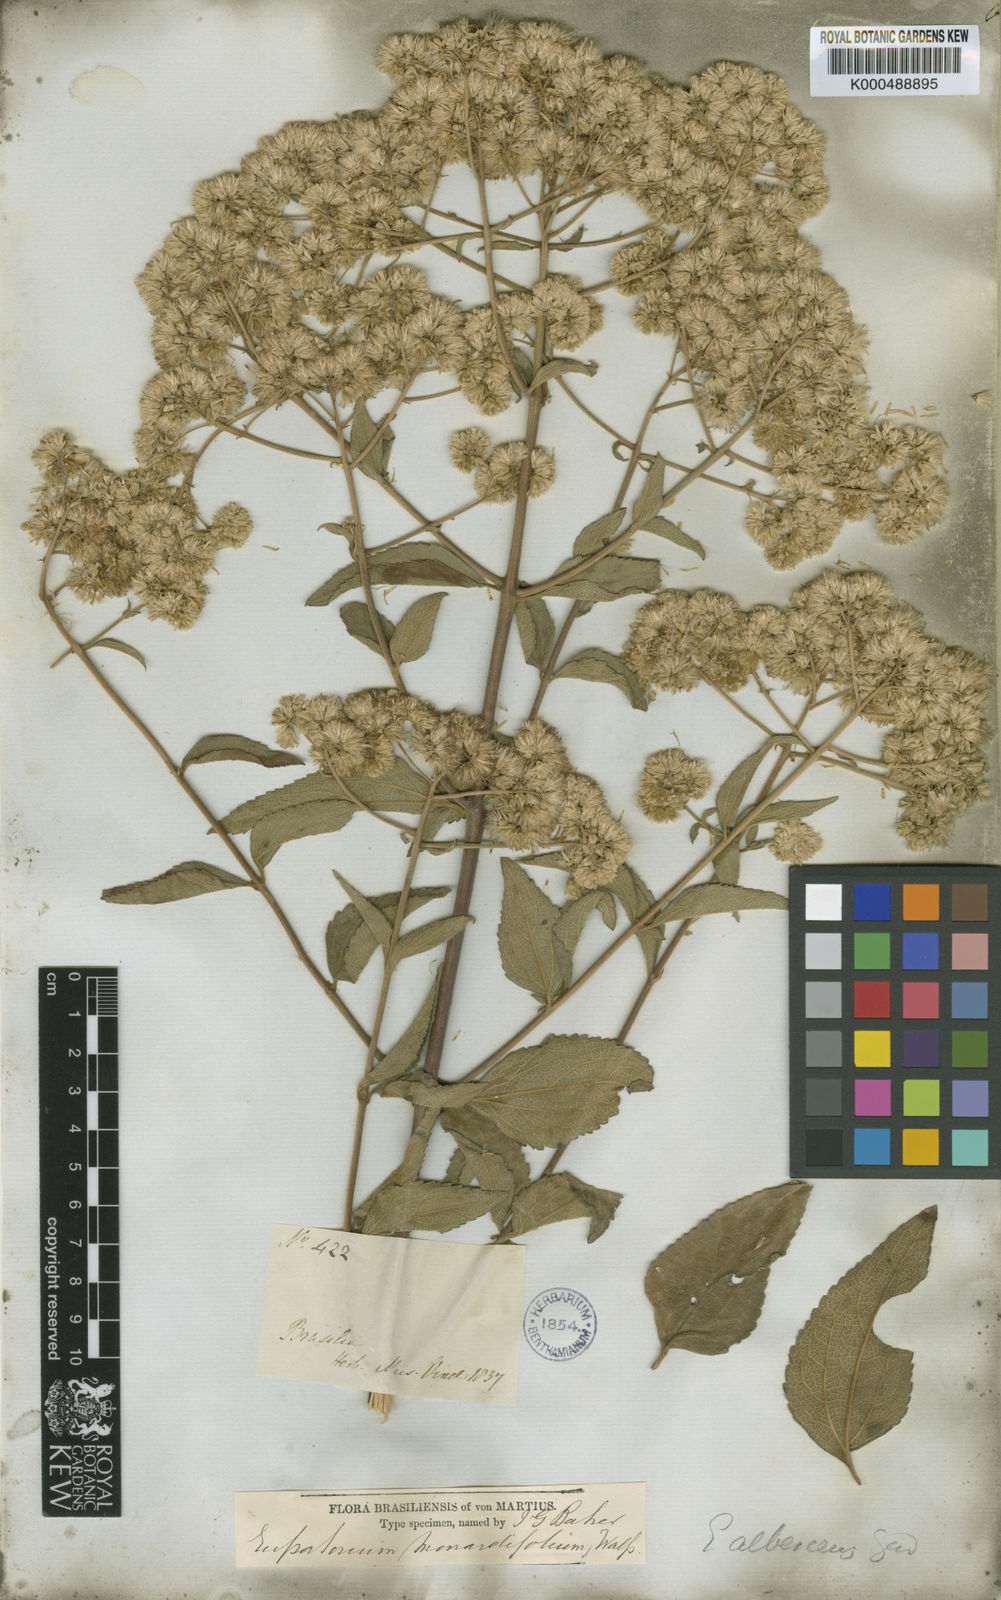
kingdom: Plantae
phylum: Tracheophyta
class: Magnoliopsida
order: Asterales
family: Asteraceae
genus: Austroeupatorium
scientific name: Austroeupatorium albescens
